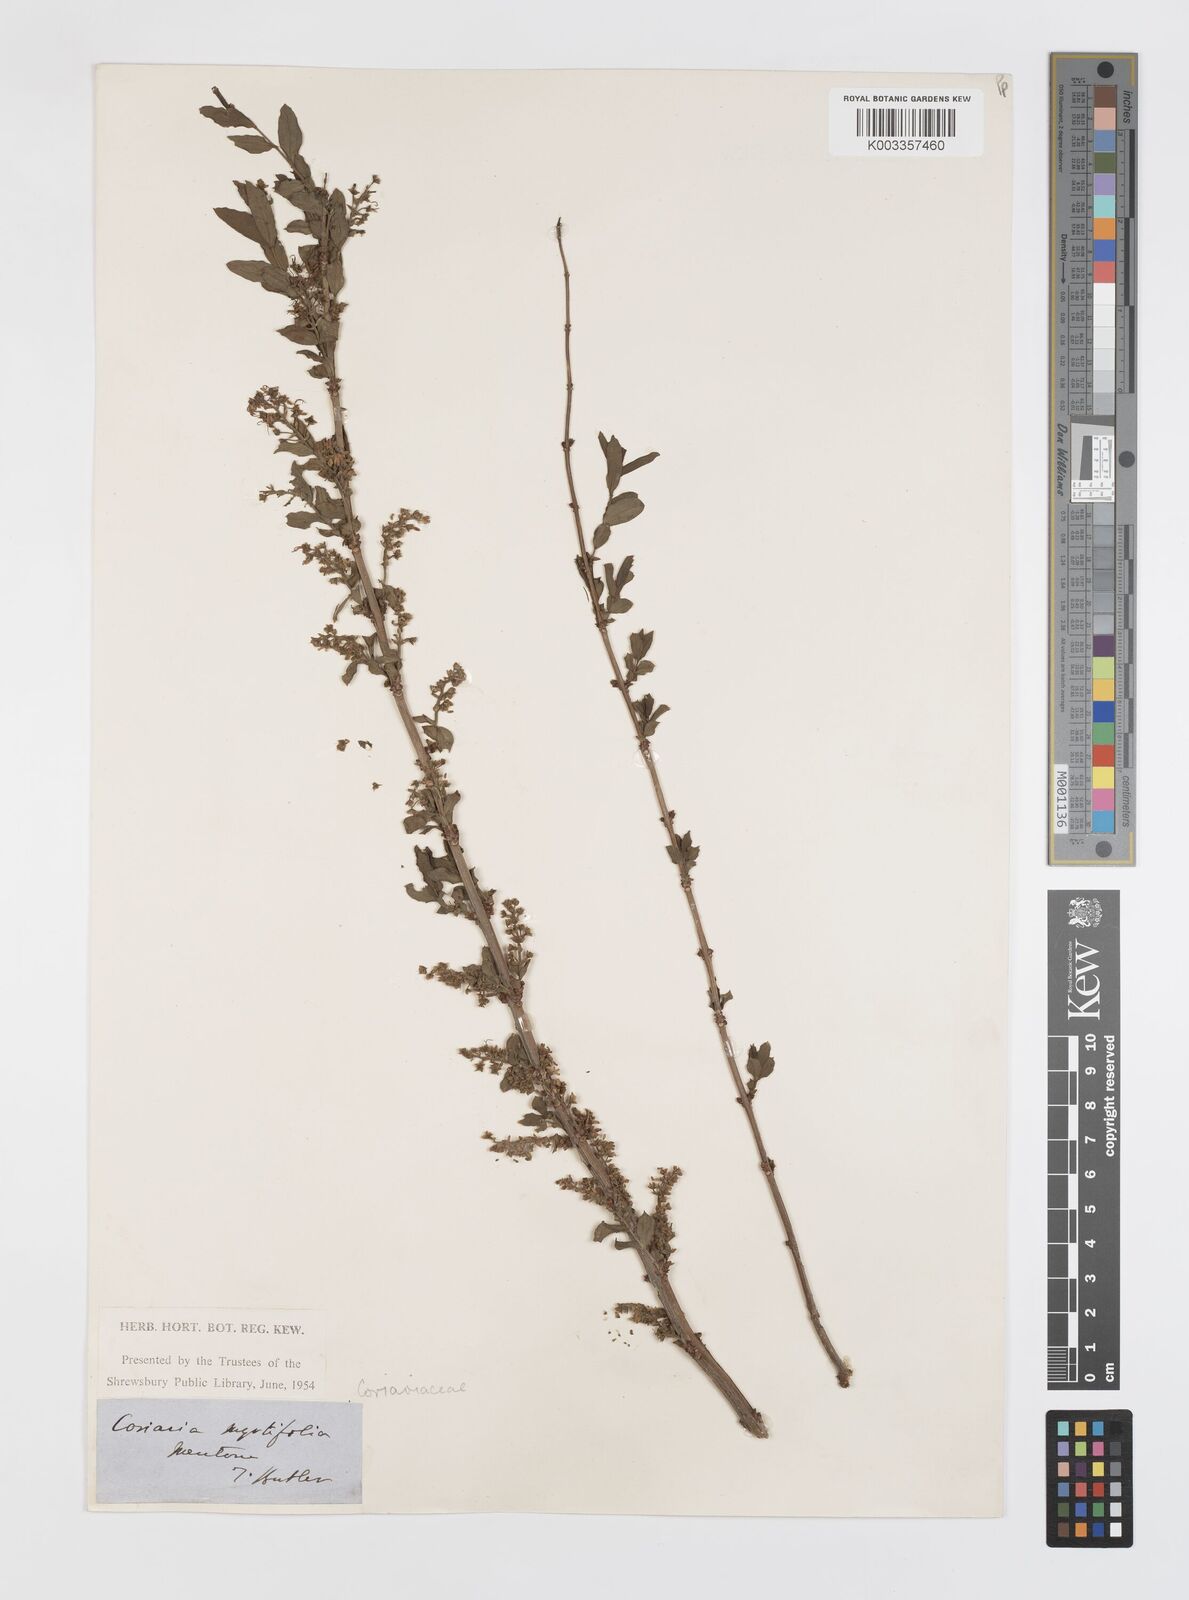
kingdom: Plantae
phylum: Tracheophyta
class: Magnoliopsida
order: Cucurbitales
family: Coriariaceae
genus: Coriaria
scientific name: Coriaria myrtifolia
